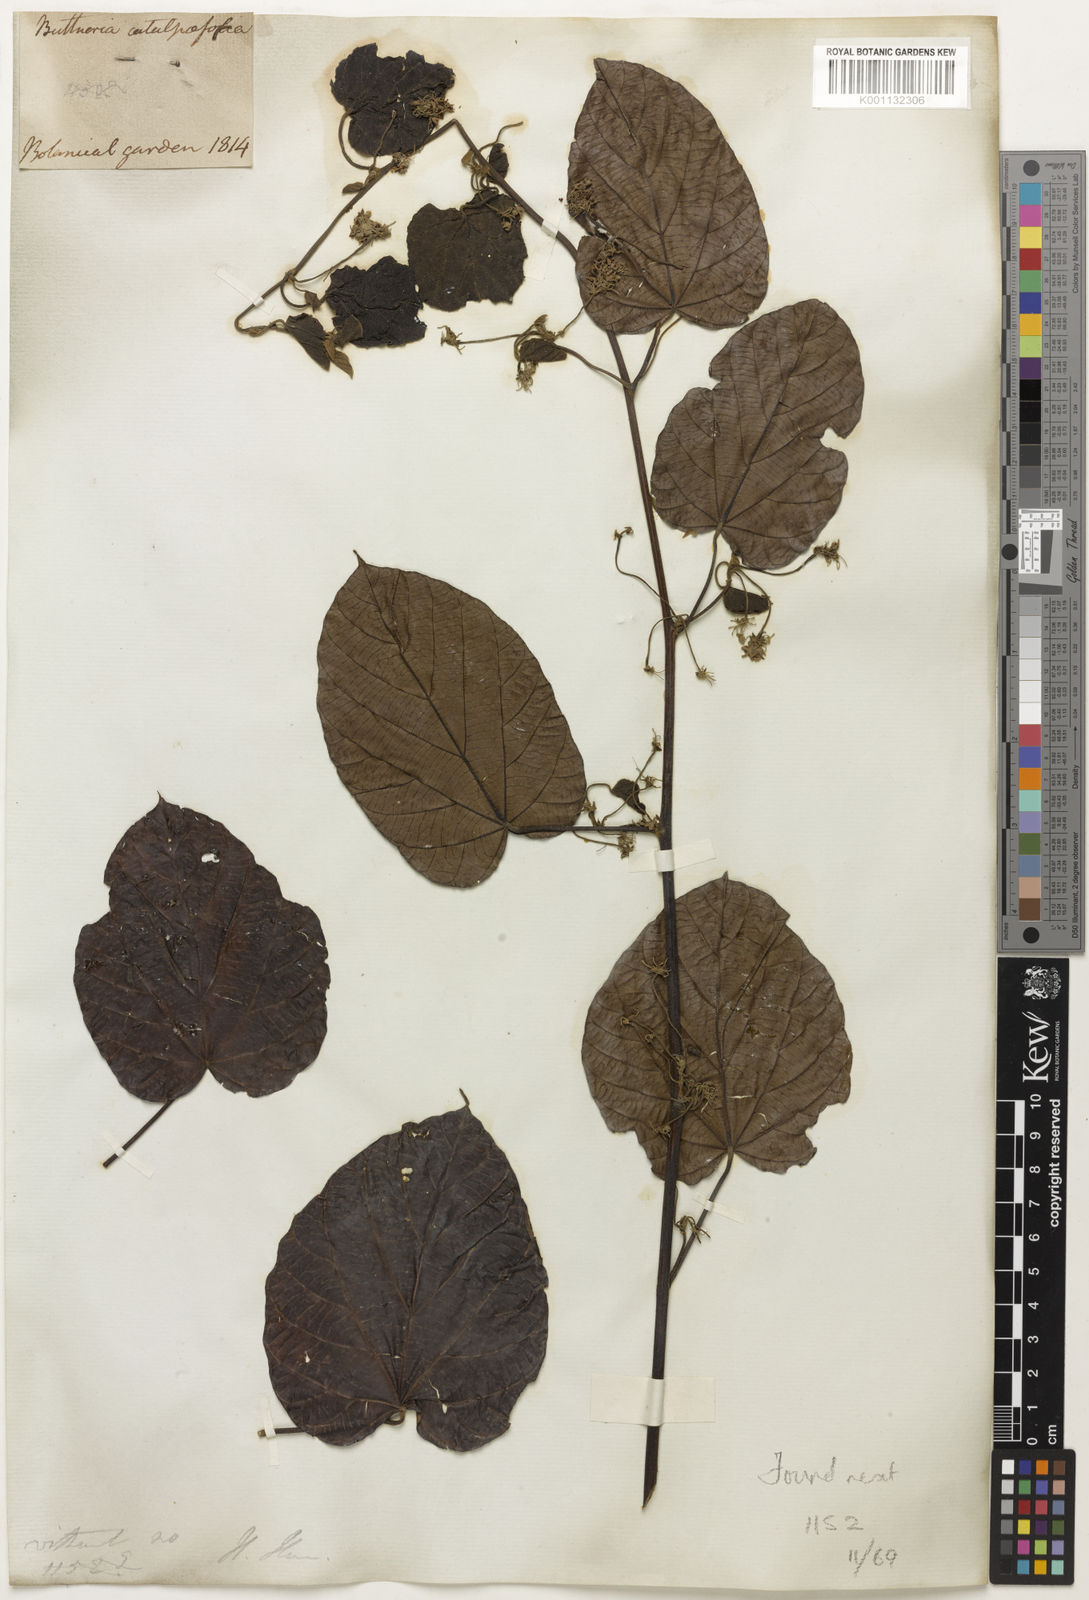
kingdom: Plantae
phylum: Tracheophyta
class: Magnoliopsida
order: Malvales
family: Malvaceae
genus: Byttneria
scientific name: Byttneria
